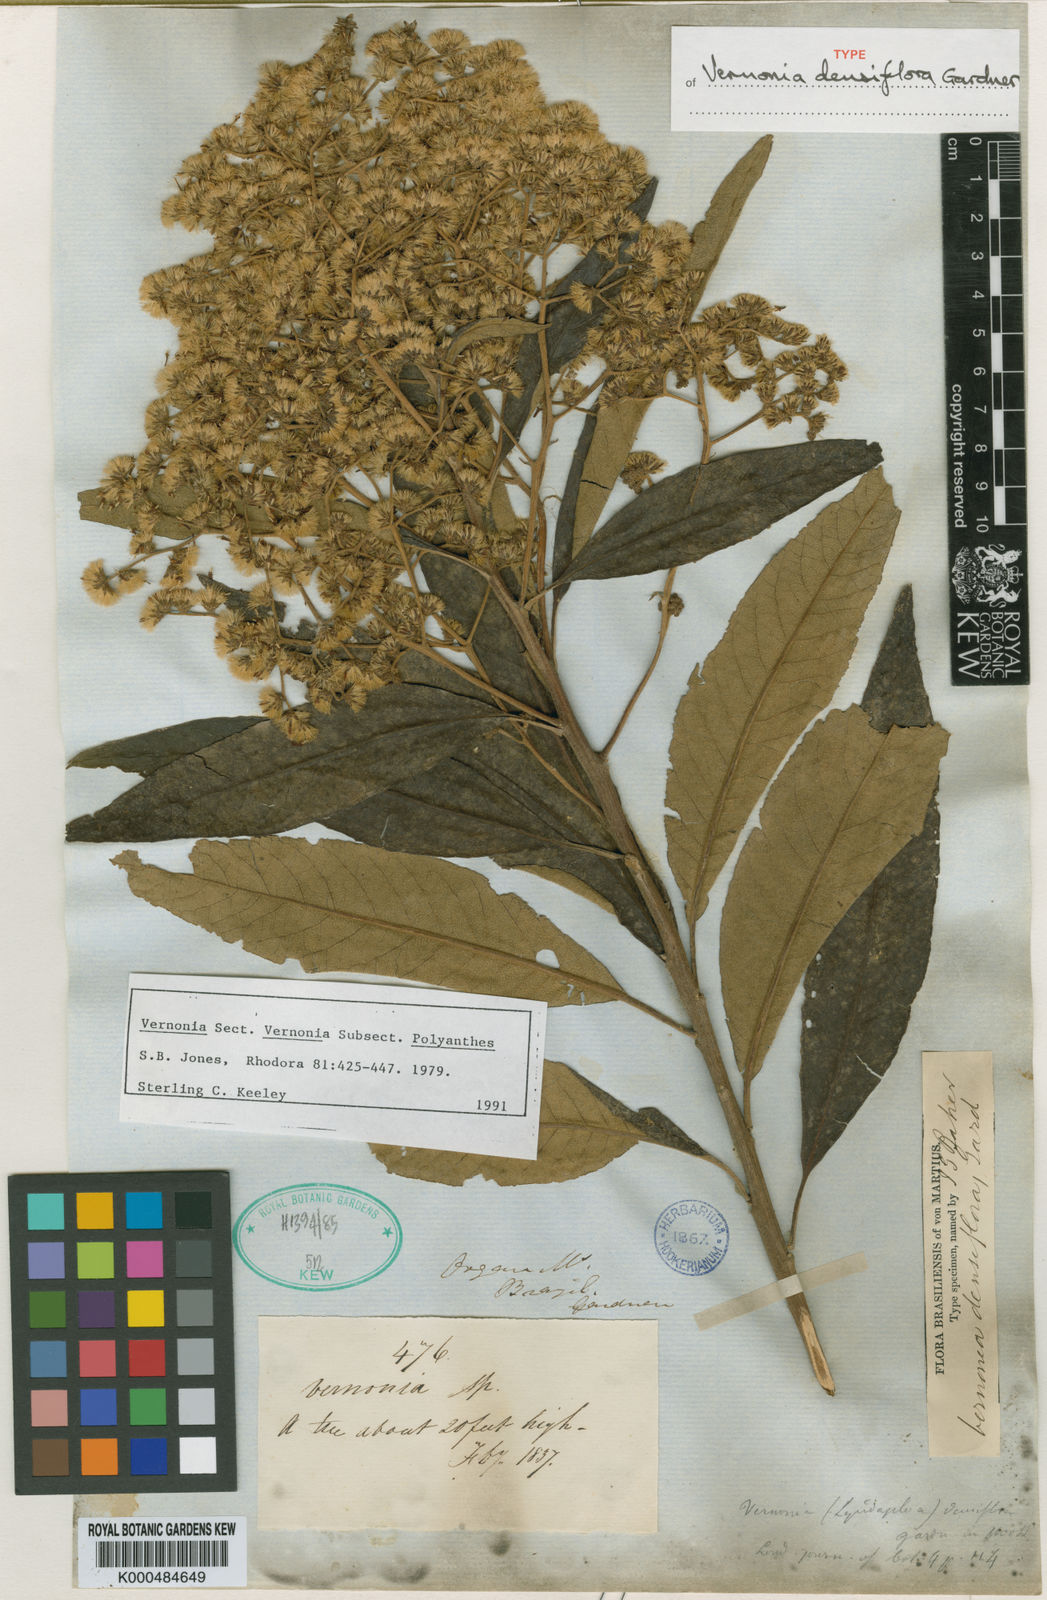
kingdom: Plantae
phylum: Tracheophyta
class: Magnoliopsida
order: Asterales
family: Asteraceae
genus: Vernonanthura
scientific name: Vernonanthura densiflora
